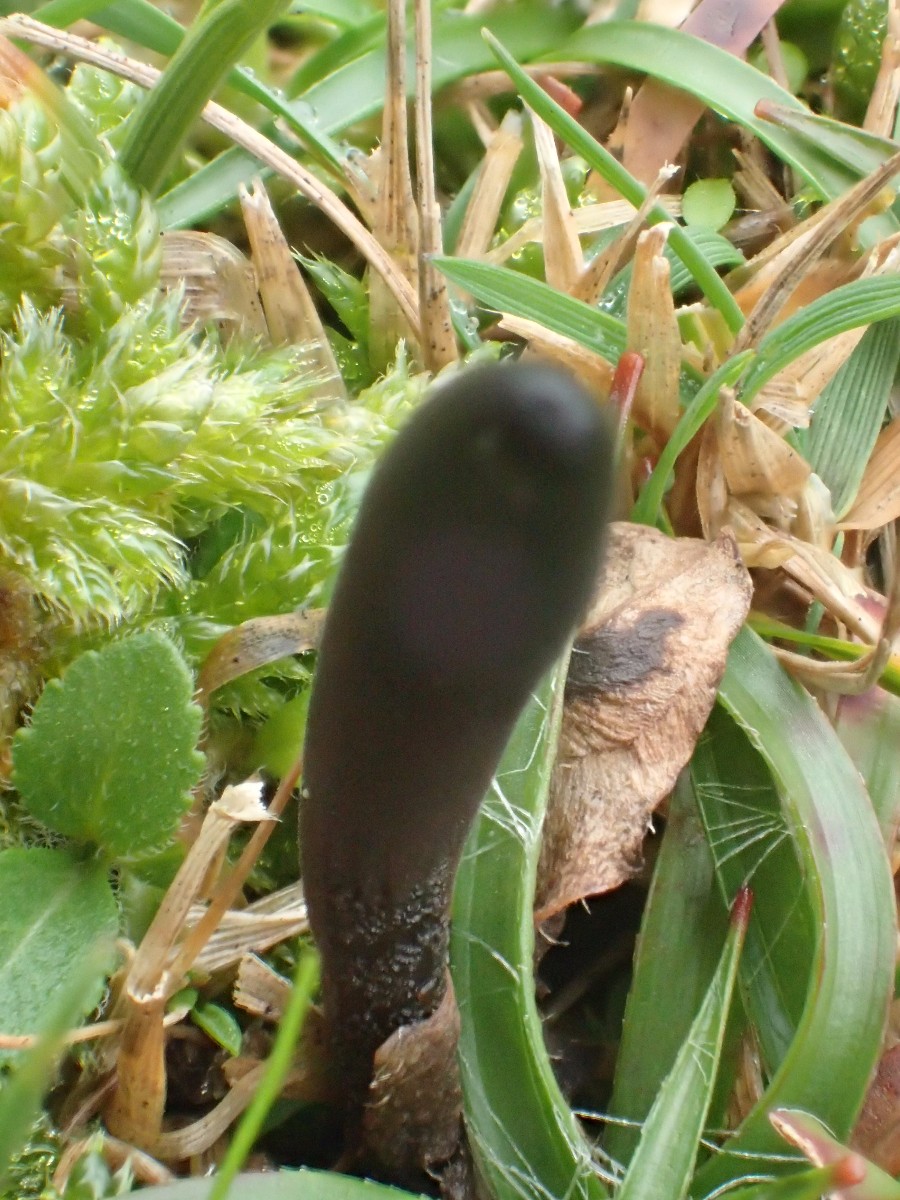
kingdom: Fungi
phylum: Ascomycota
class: Geoglossomycetes
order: Geoglossales
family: Geoglossaceae
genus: Geoglossum
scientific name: Geoglossum umbratile
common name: slank jordtunge
